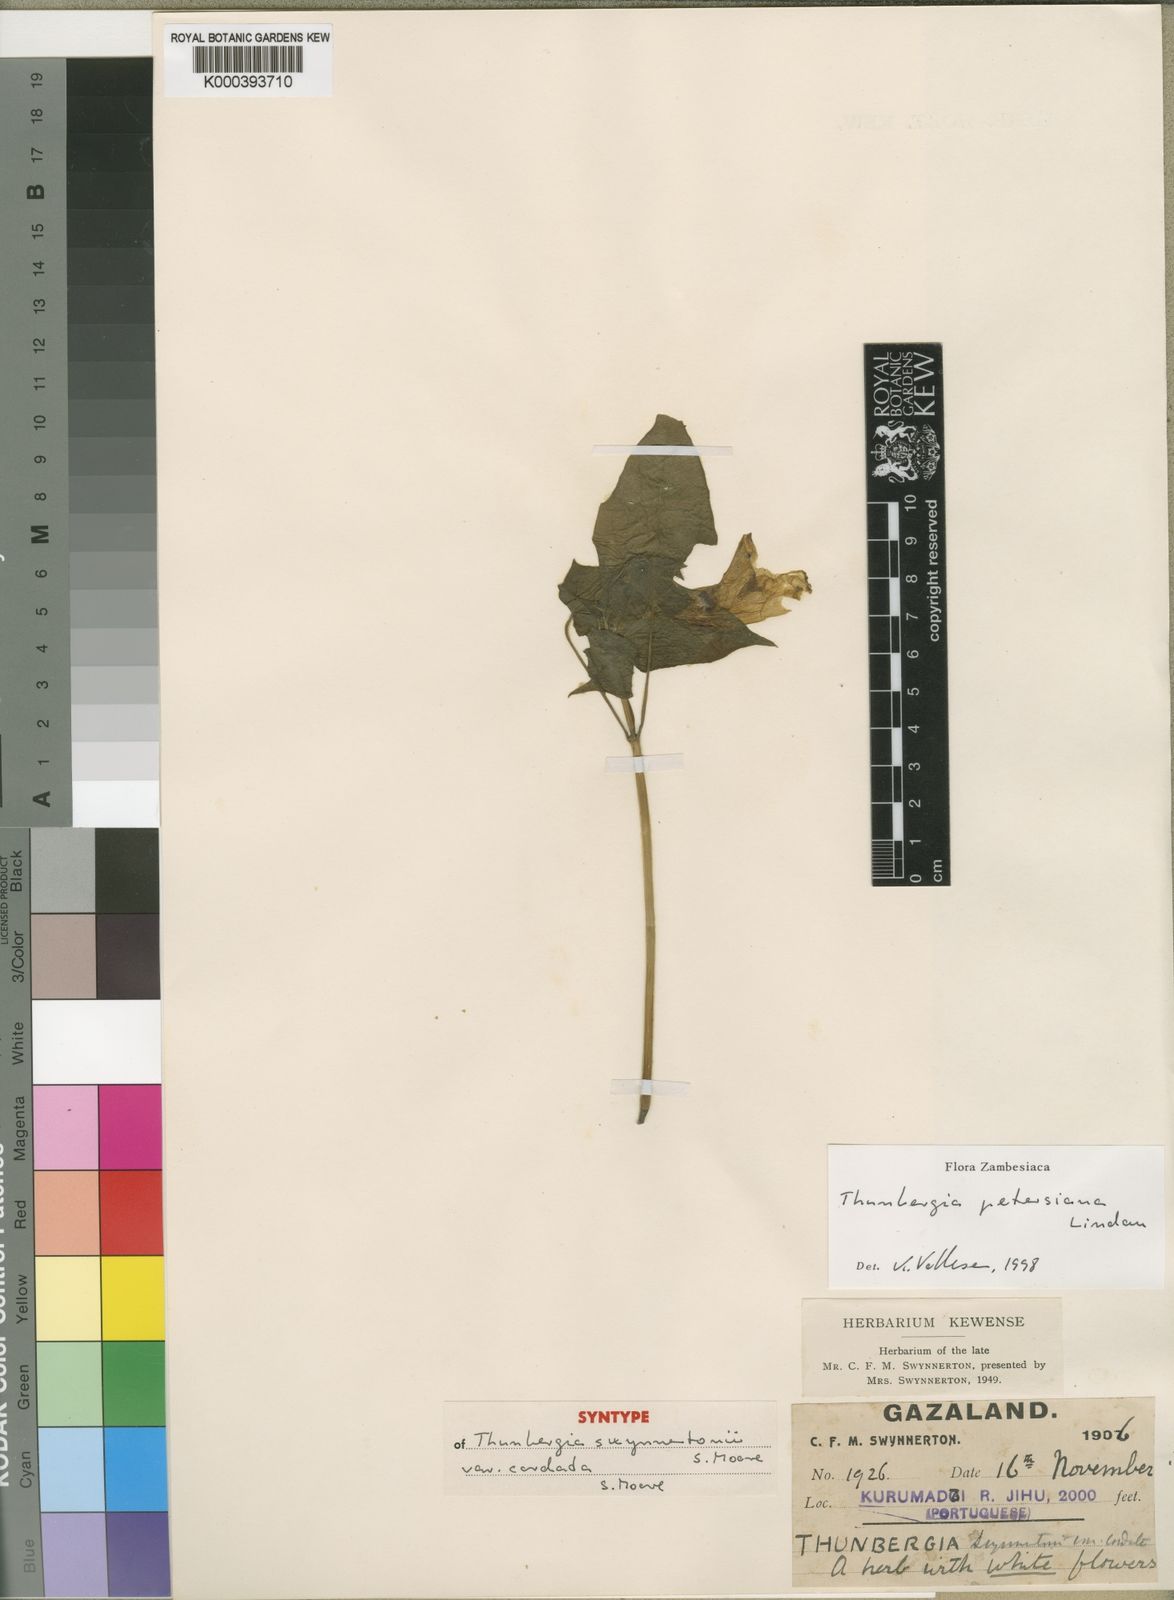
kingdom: Plantae
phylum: Tracheophyta
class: Magnoliopsida
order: Lamiales
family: Acanthaceae
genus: Thunbergia
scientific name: Thunbergia petersiana
